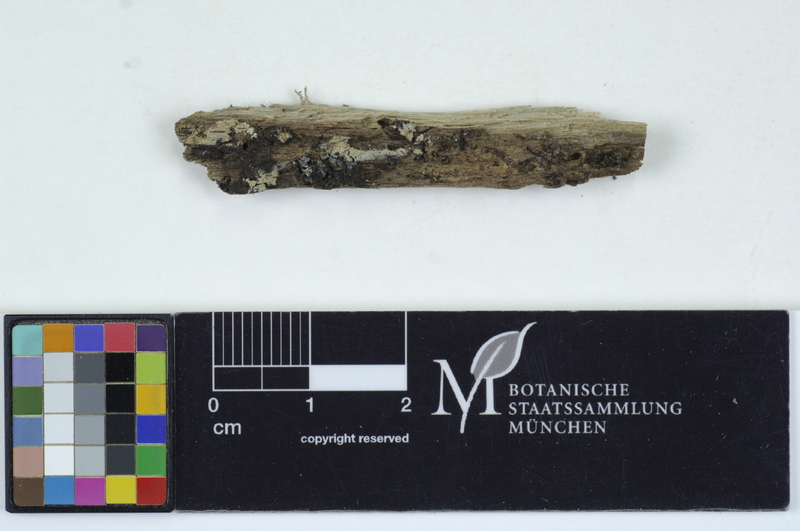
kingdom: Plantae
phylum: Tracheophyta
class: Magnoliopsida
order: Fagales
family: Betulaceae
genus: Alnus
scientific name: Alnus
